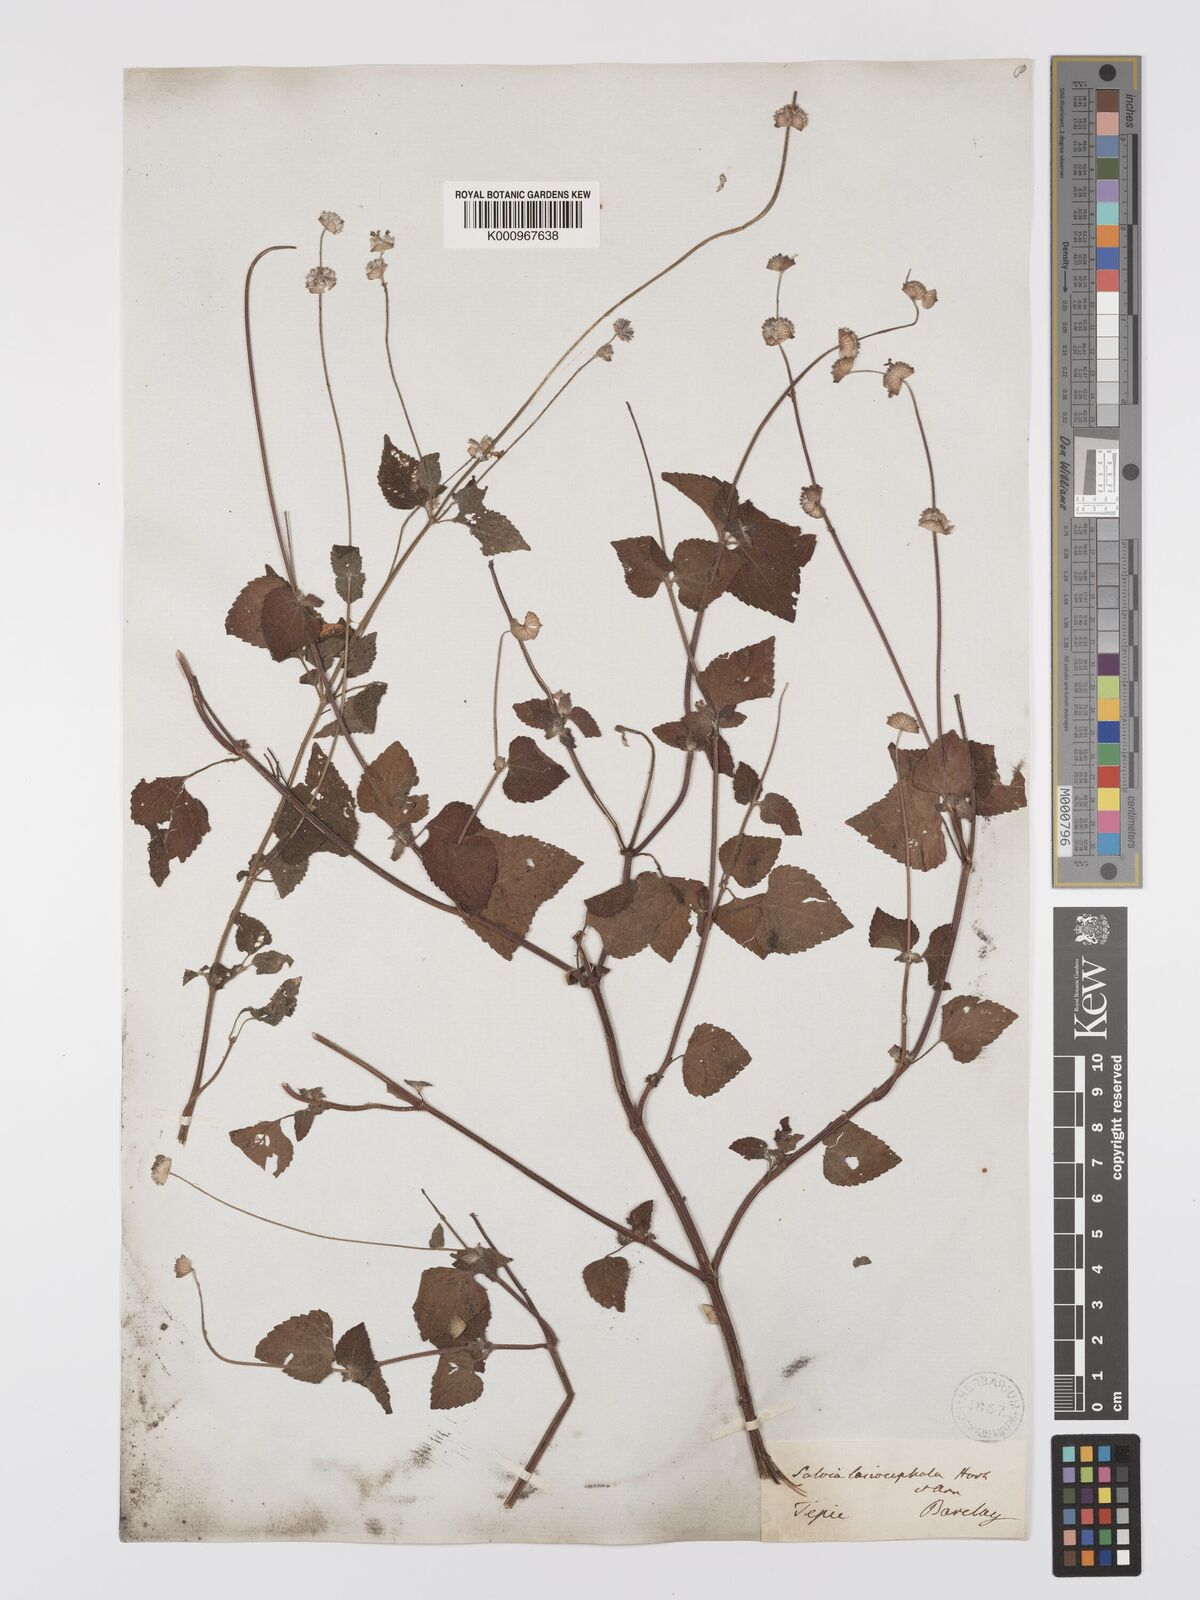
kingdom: Plantae
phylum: Tracheophyta
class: Magnoliopsida
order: Lamiales
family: Lamiaceae
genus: Salvia
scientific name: Salvia lasiocephala
